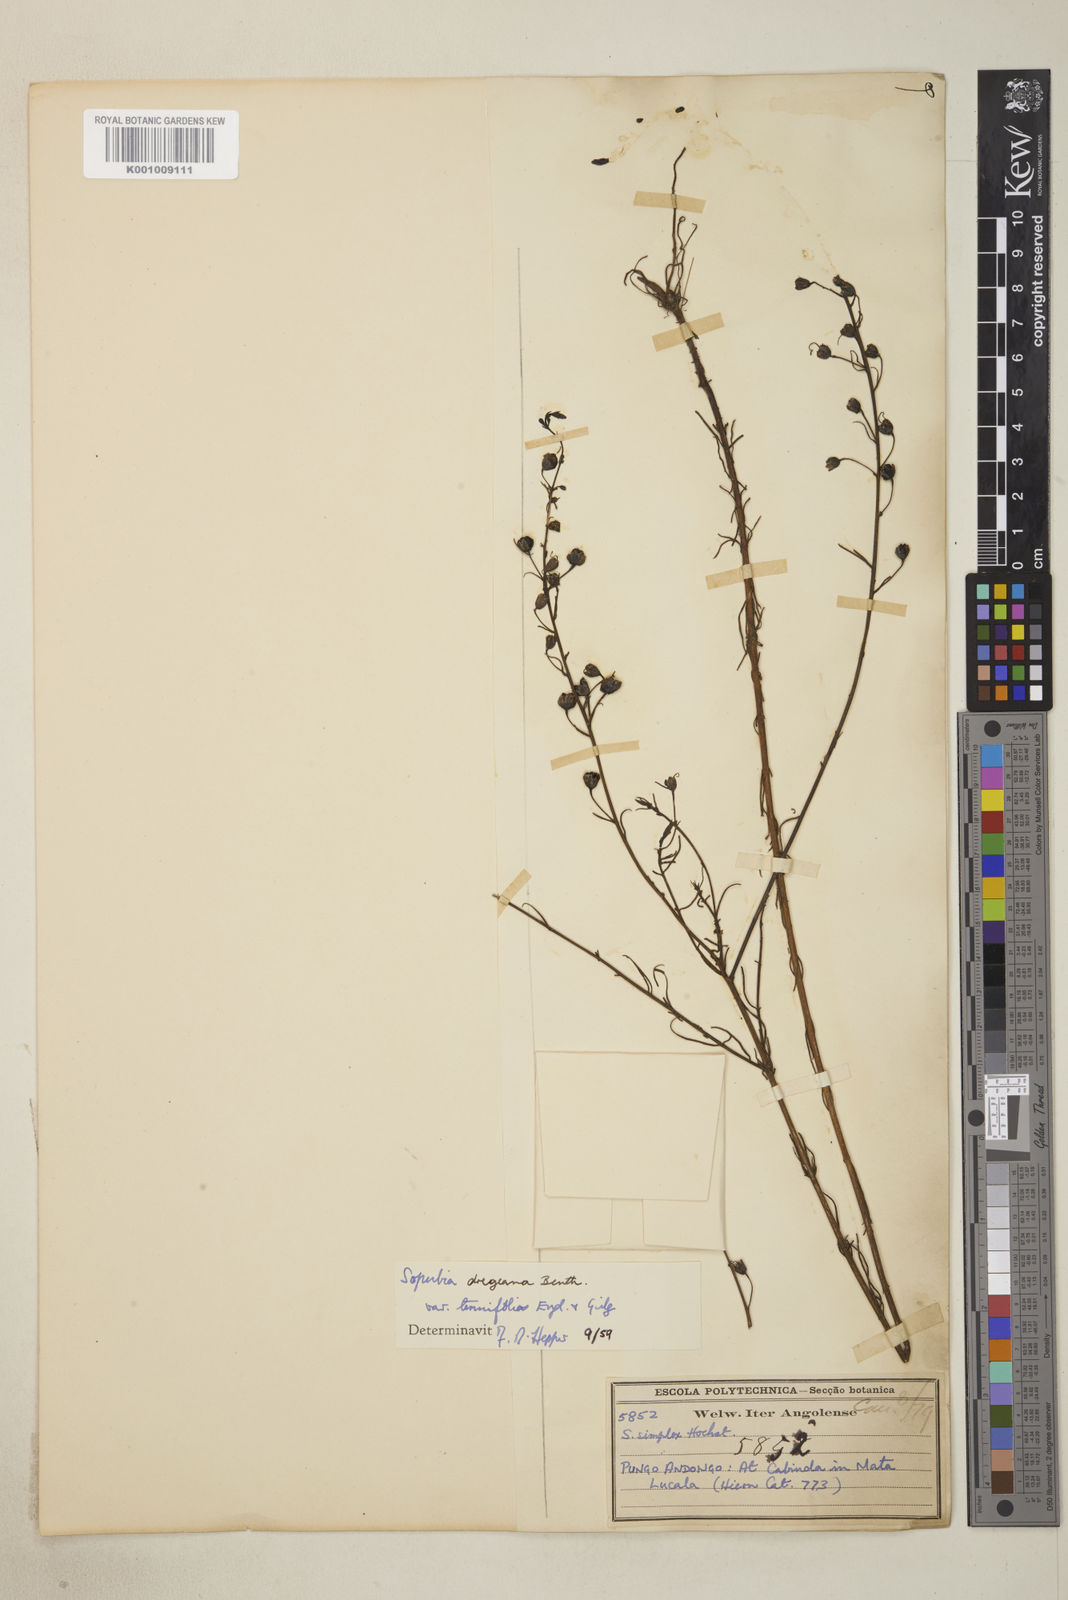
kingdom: Plantae
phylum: Tracheophyta
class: Magnoliopsida
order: Lamiales
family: Orobanchaceae
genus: Sopubia
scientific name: Sopubia mannii
